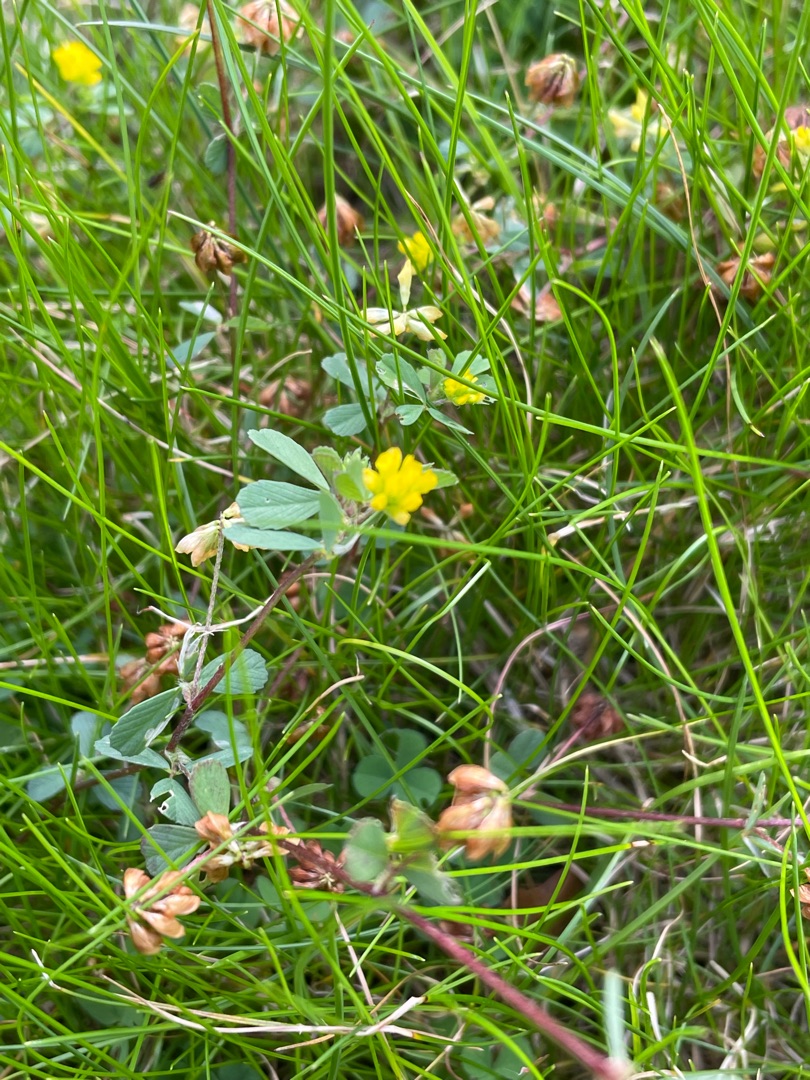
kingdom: Plantae
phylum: Tracheophyta
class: Magnoliopsida
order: Fabales
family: Fabaceae
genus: Trifolium
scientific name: Trifolium dubium
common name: Fin kløver
